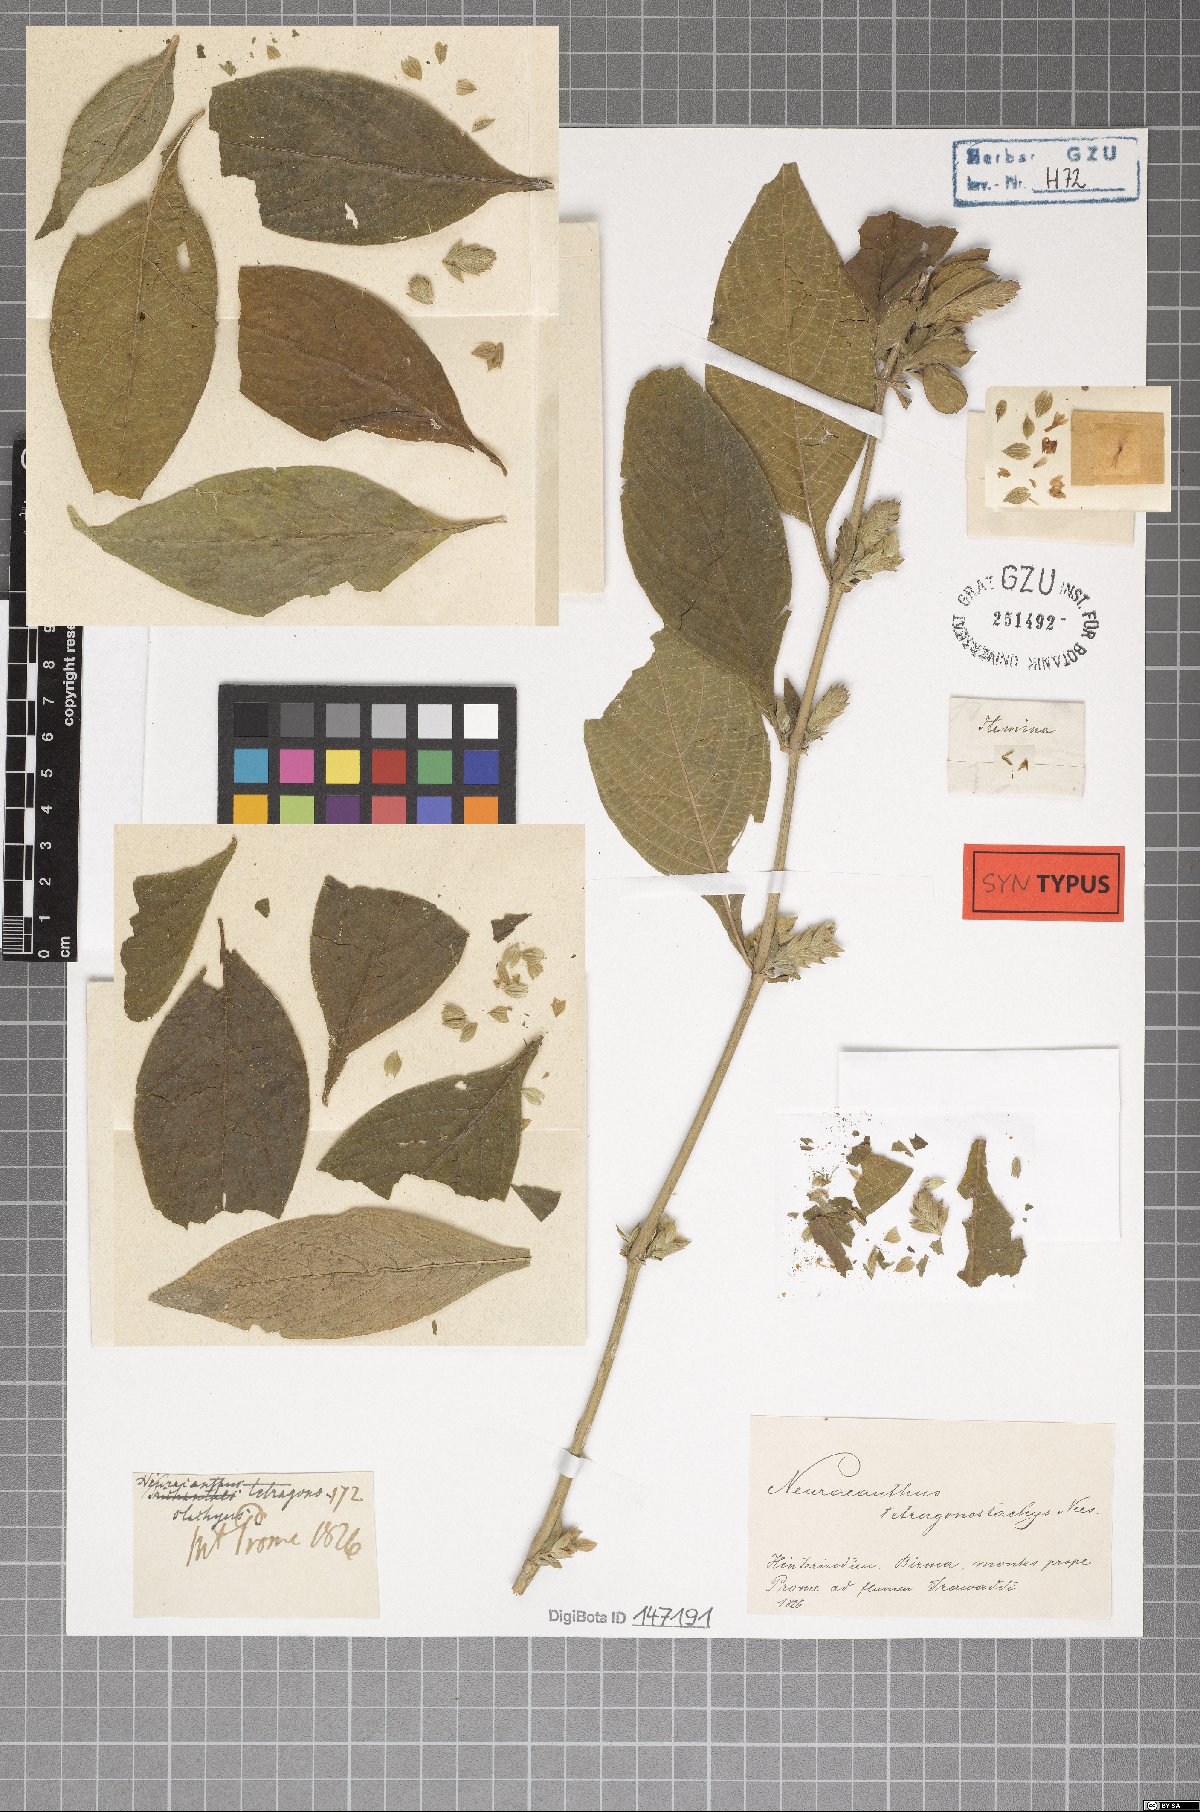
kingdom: Plantae
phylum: Tracheophyta
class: Magnoliopsida
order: Lamiales
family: Acanthaceae
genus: Neuracanthus
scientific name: Neuracanthus tetragonostachyus
